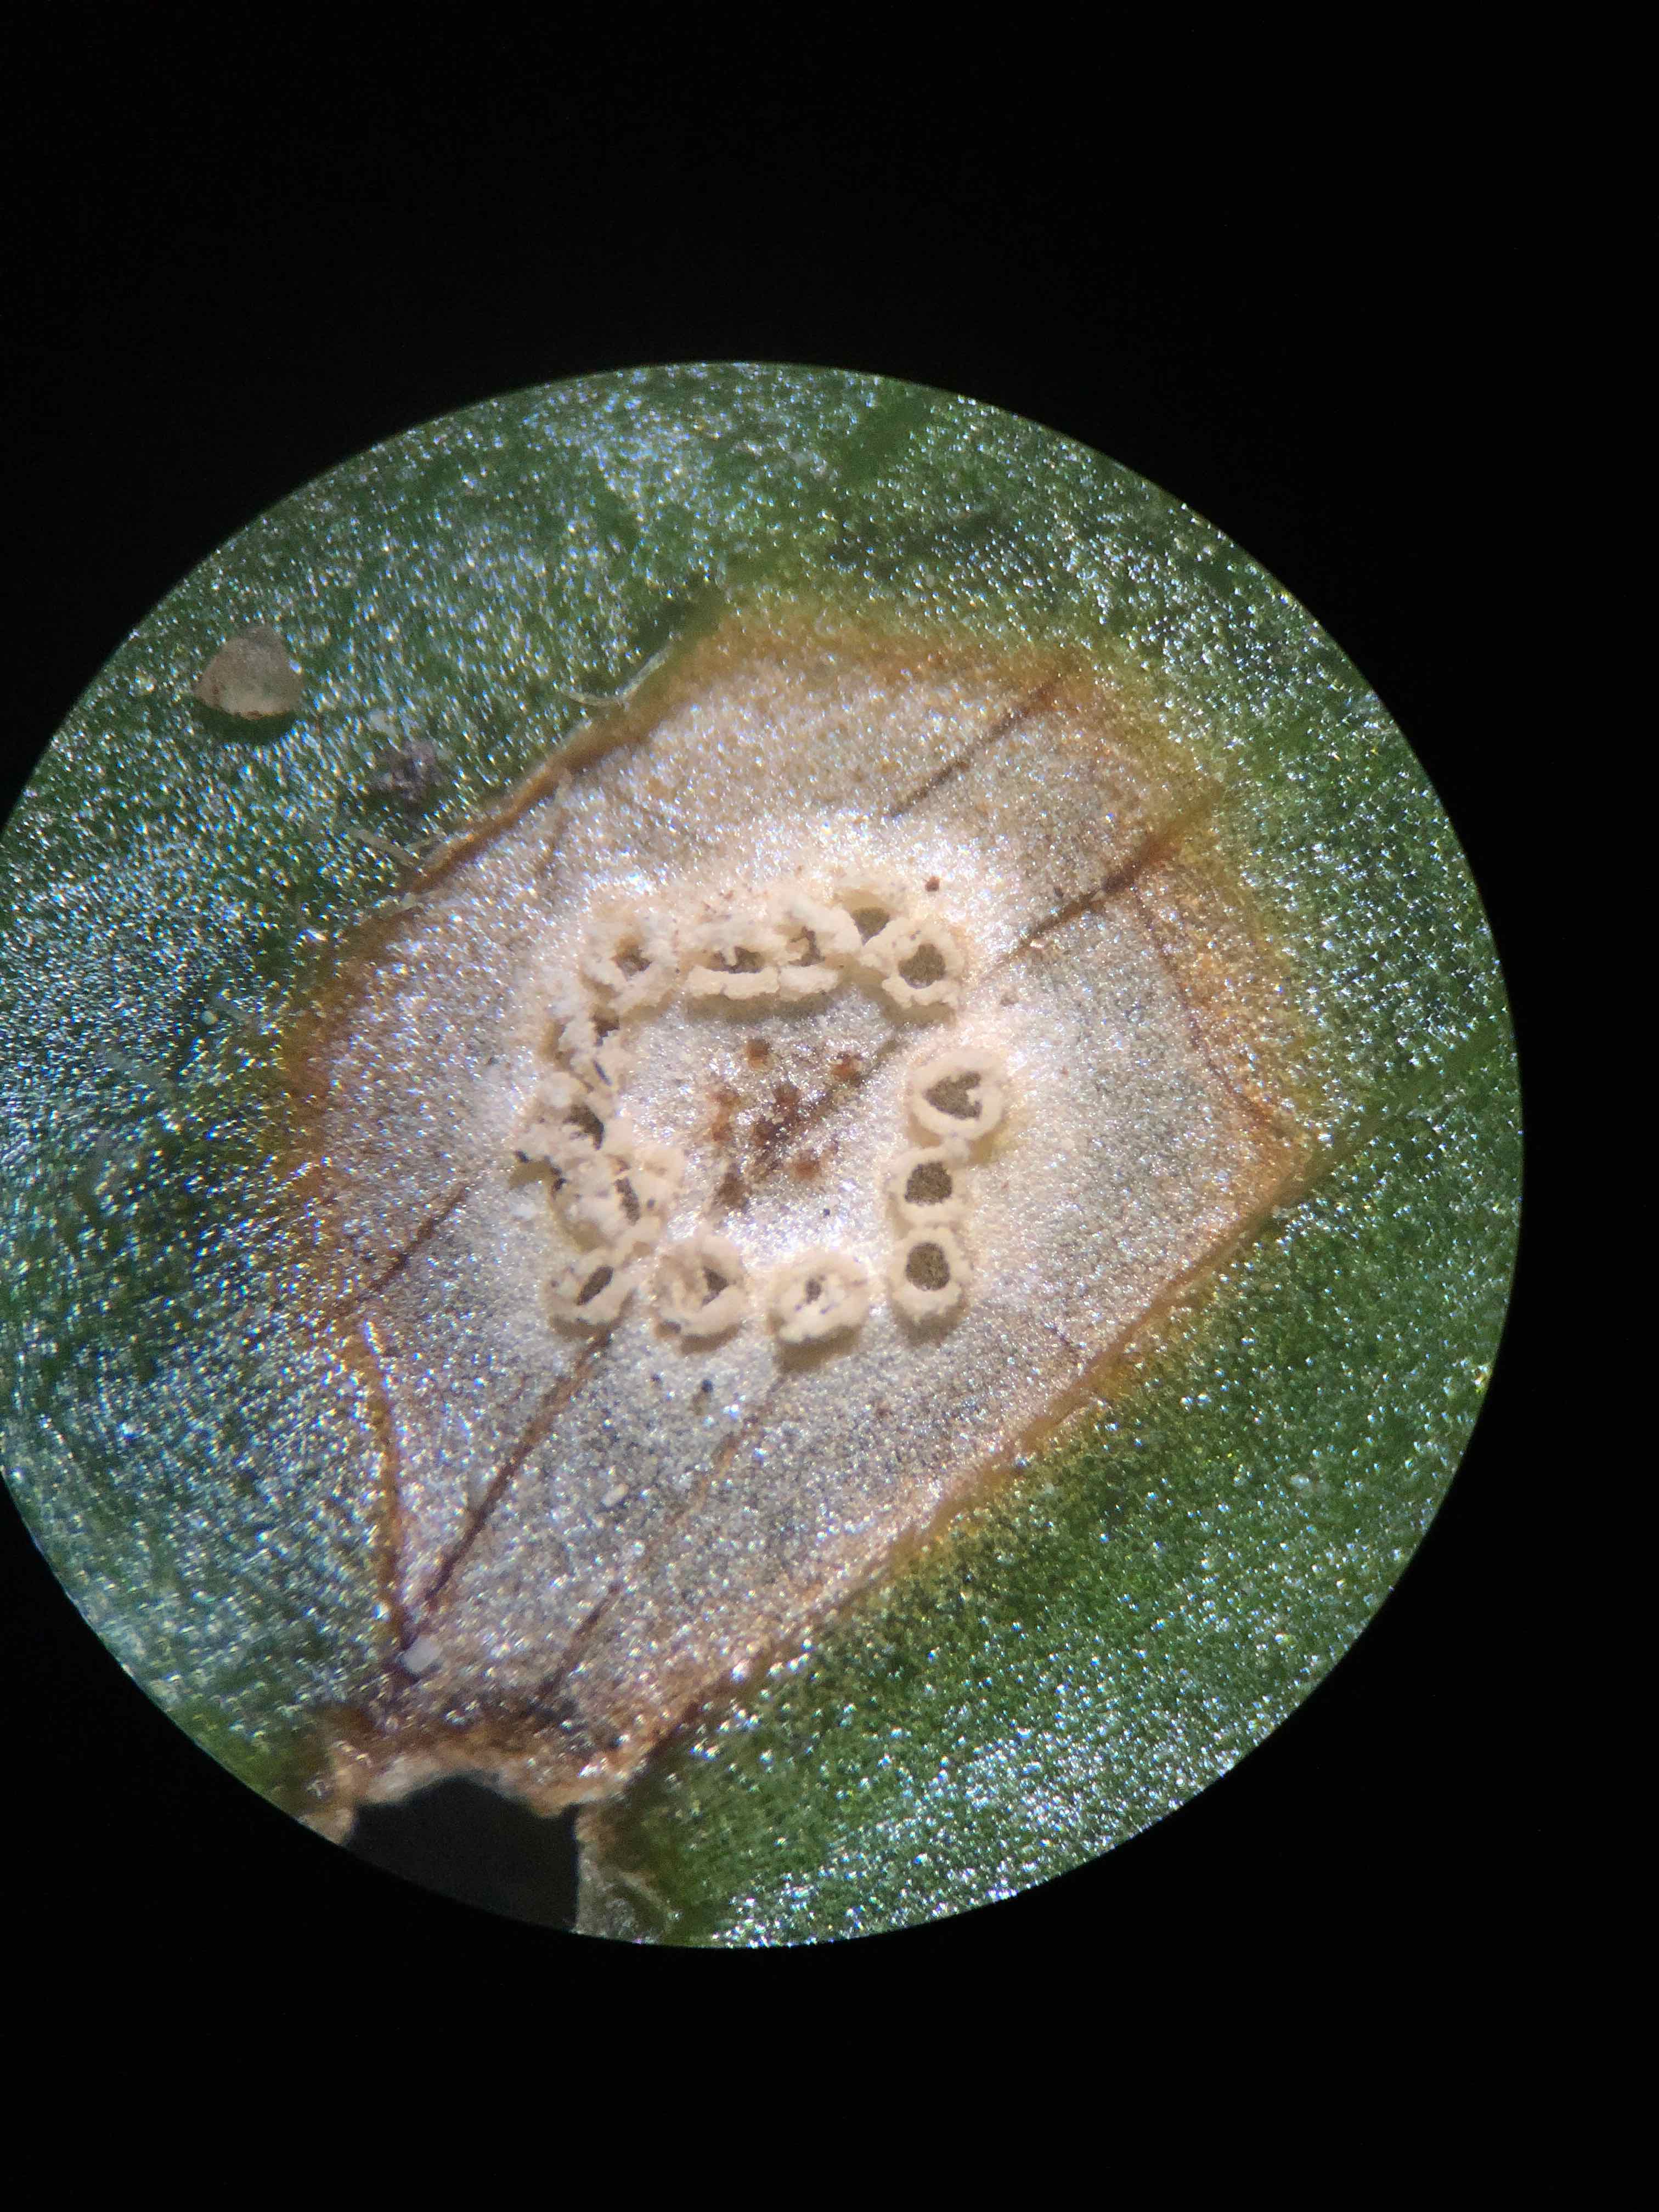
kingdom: Fungi
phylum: Basidiomycota
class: Pucciniomycetes
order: Pucciniales
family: Pucciniaceae
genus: Puccinia
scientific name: Puccinia sessilis
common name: Arum rust
